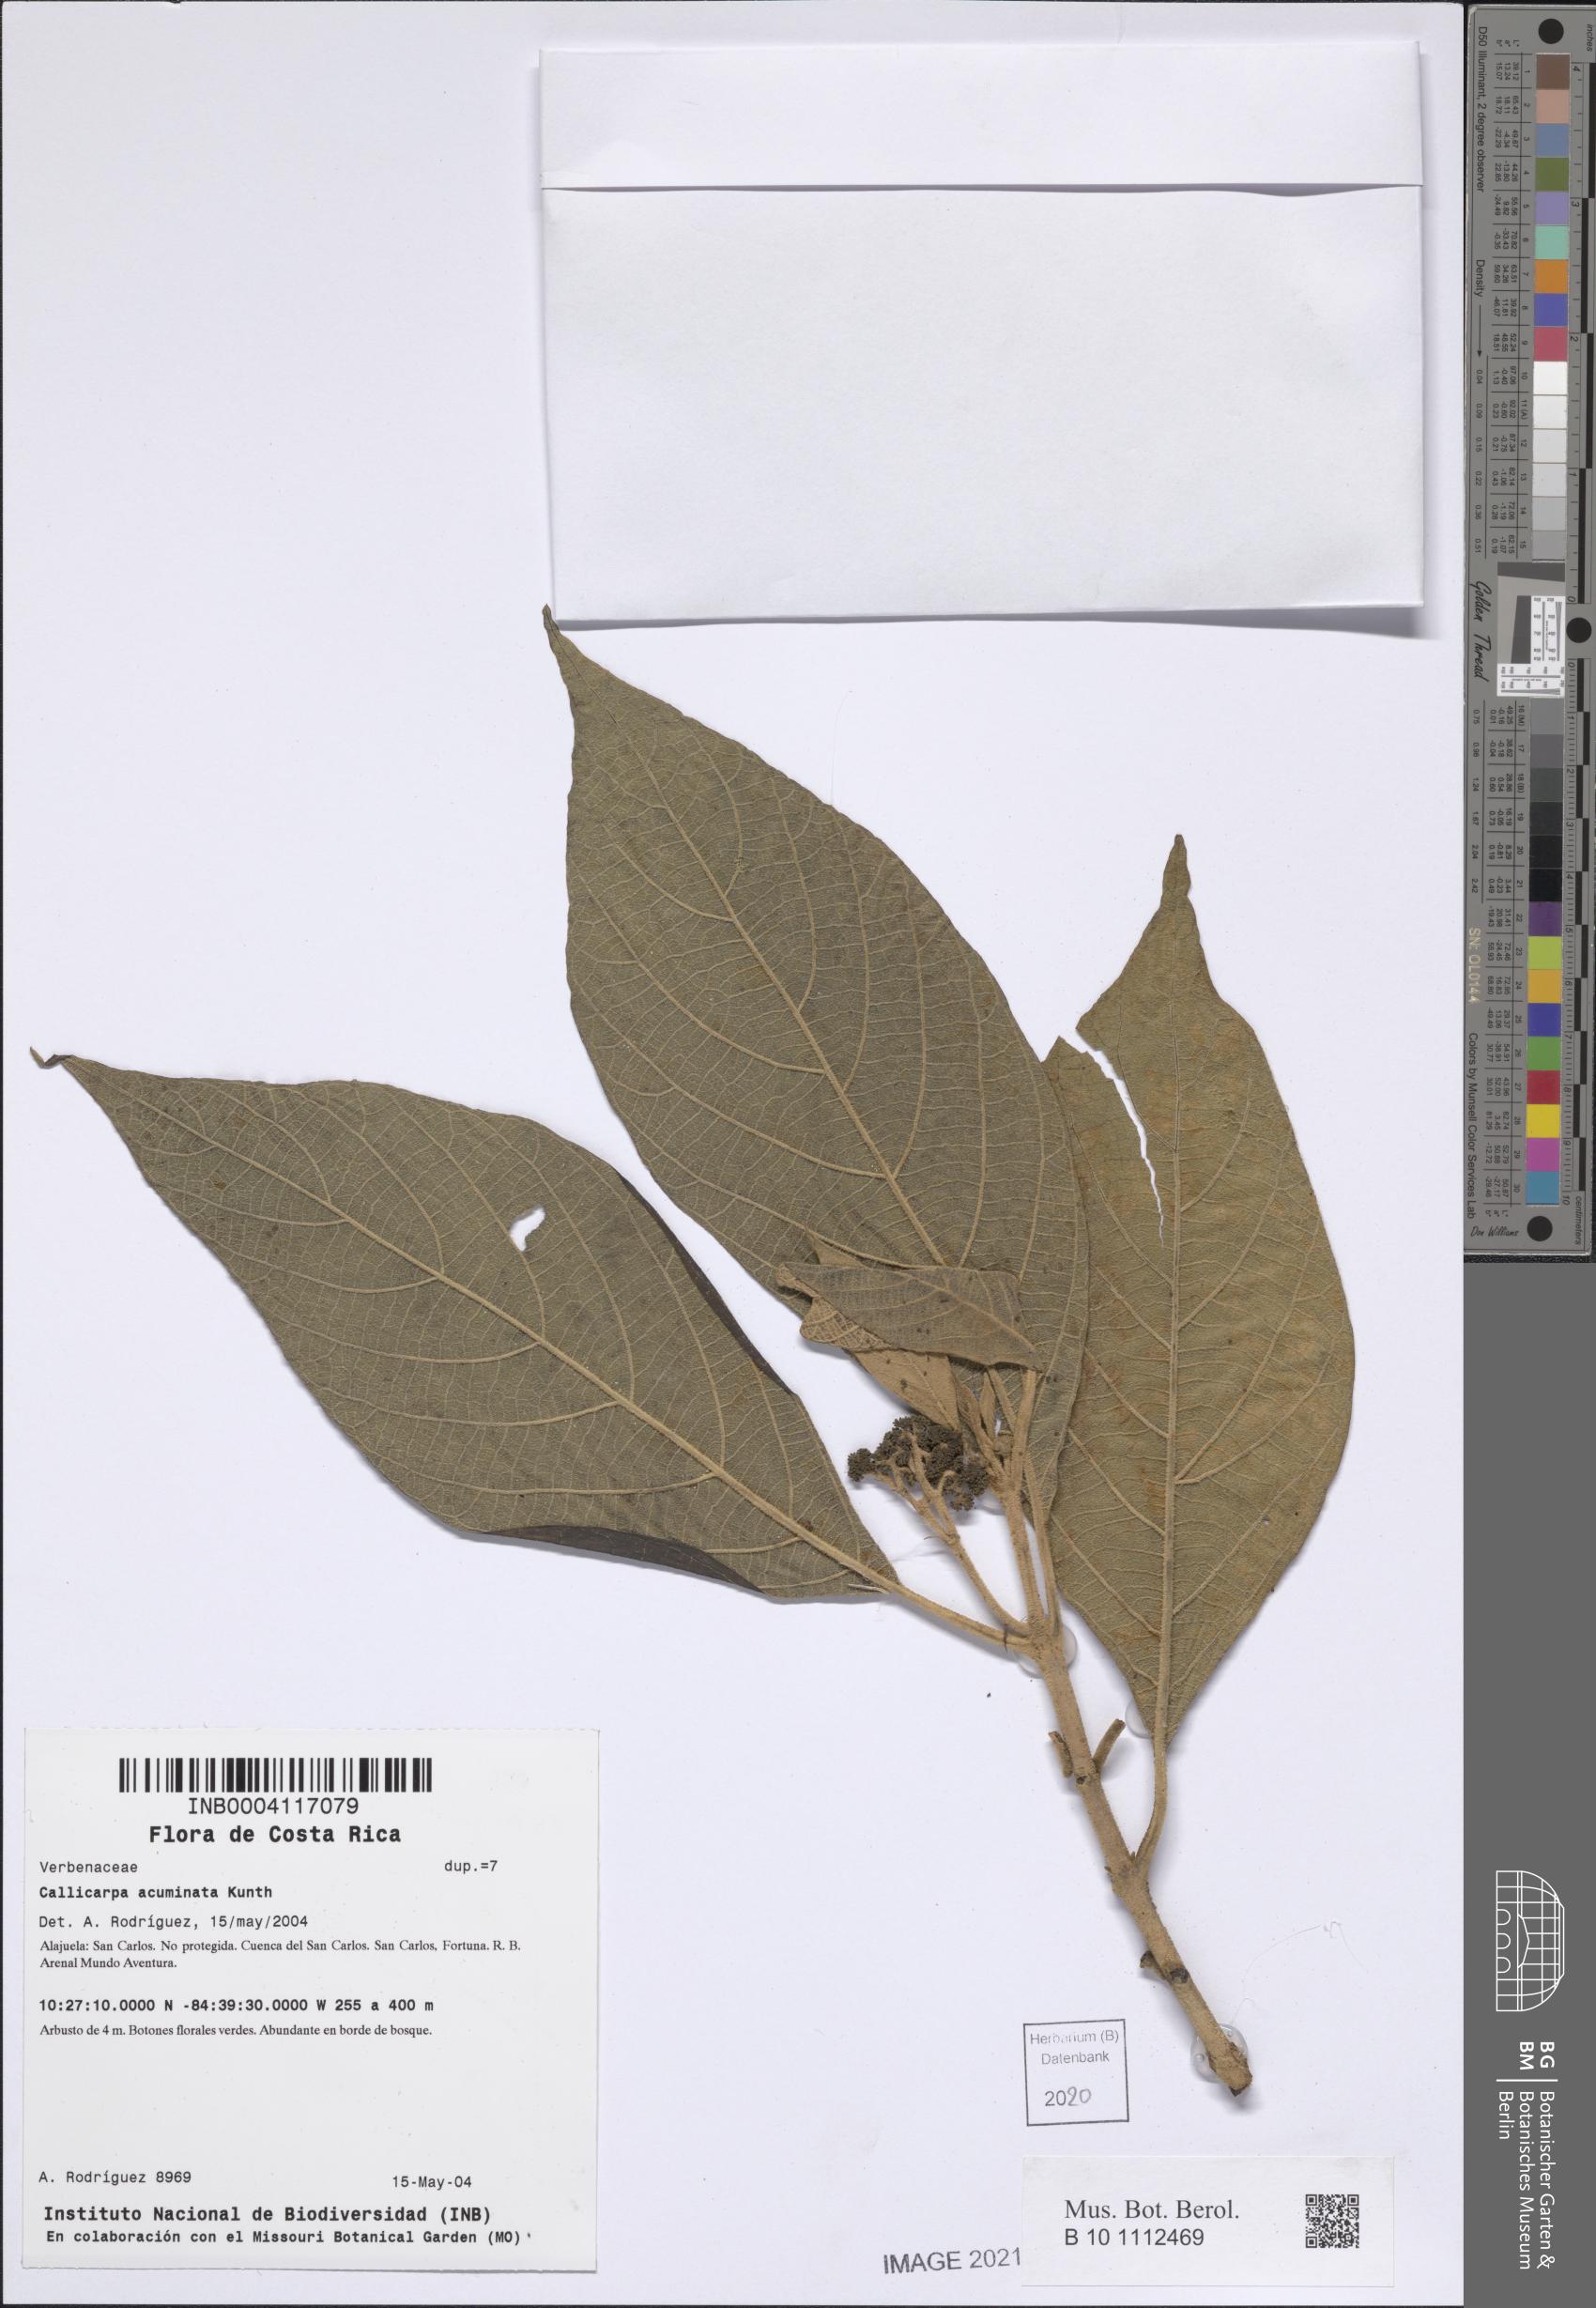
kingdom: Plantae
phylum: Tracheophyta
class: Magnoliopsida
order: Lamiales
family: Lamiaceae
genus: Callicarpa
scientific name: Callicarpa acuminata
